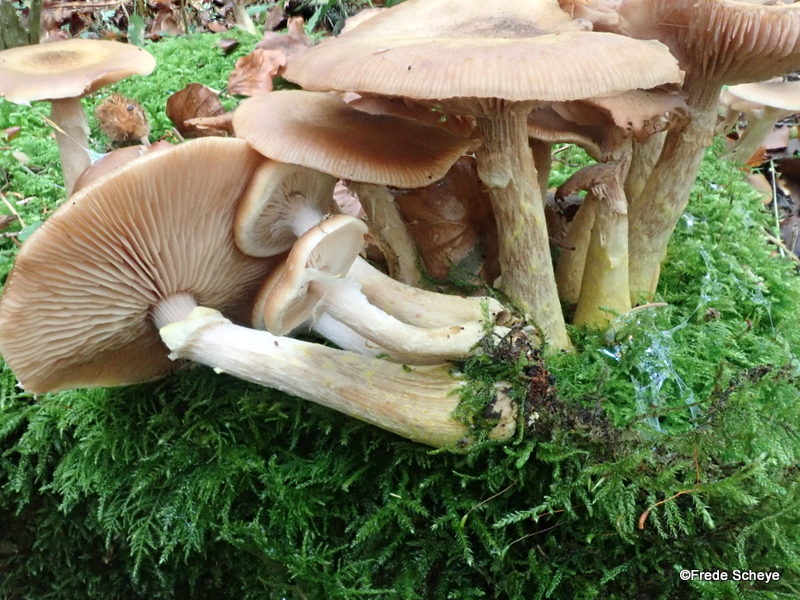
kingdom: Fungi
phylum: Basidiomycota
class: Agaricomycetes
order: Agaricales
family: Physalacriaceae
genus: Armillaria
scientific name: Armillaria lutea
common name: køllestokket honningsvamp
